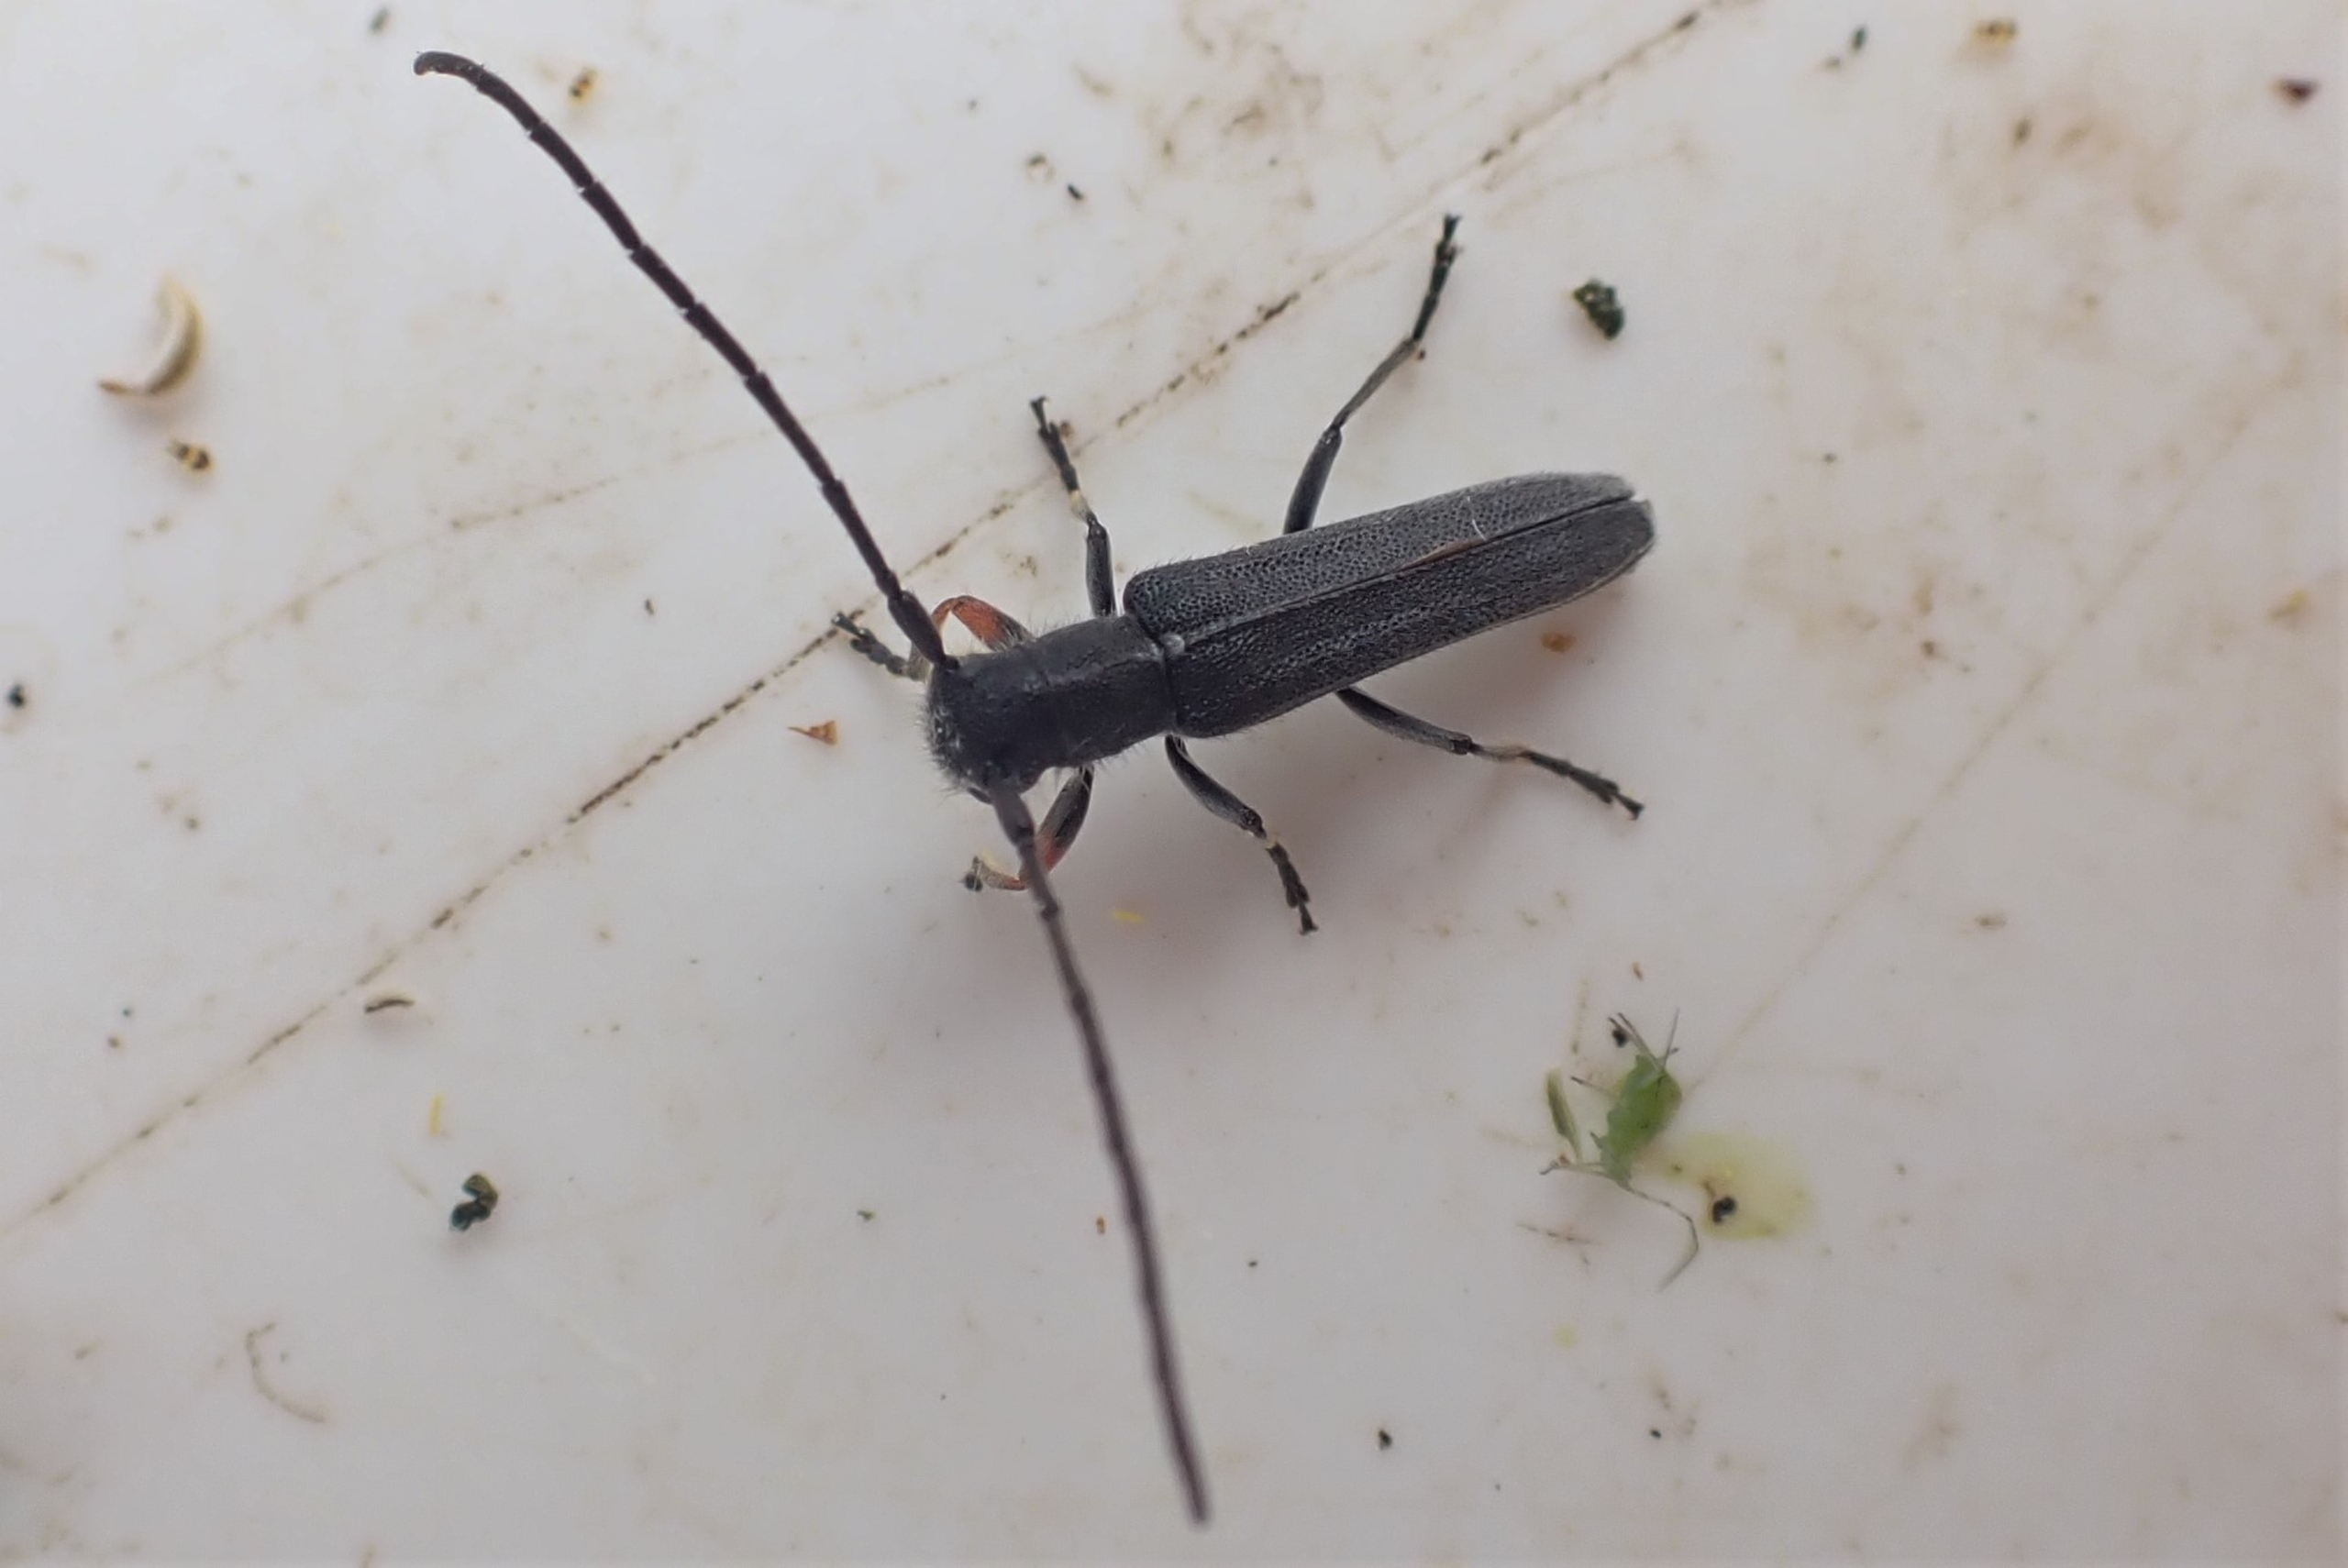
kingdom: Animalia
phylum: Arthropoda
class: Insecta
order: Coleoptera
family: Cerambycidae
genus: Phytoecia
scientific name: Phytoecia cylindrica
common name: Kørvelbuk
